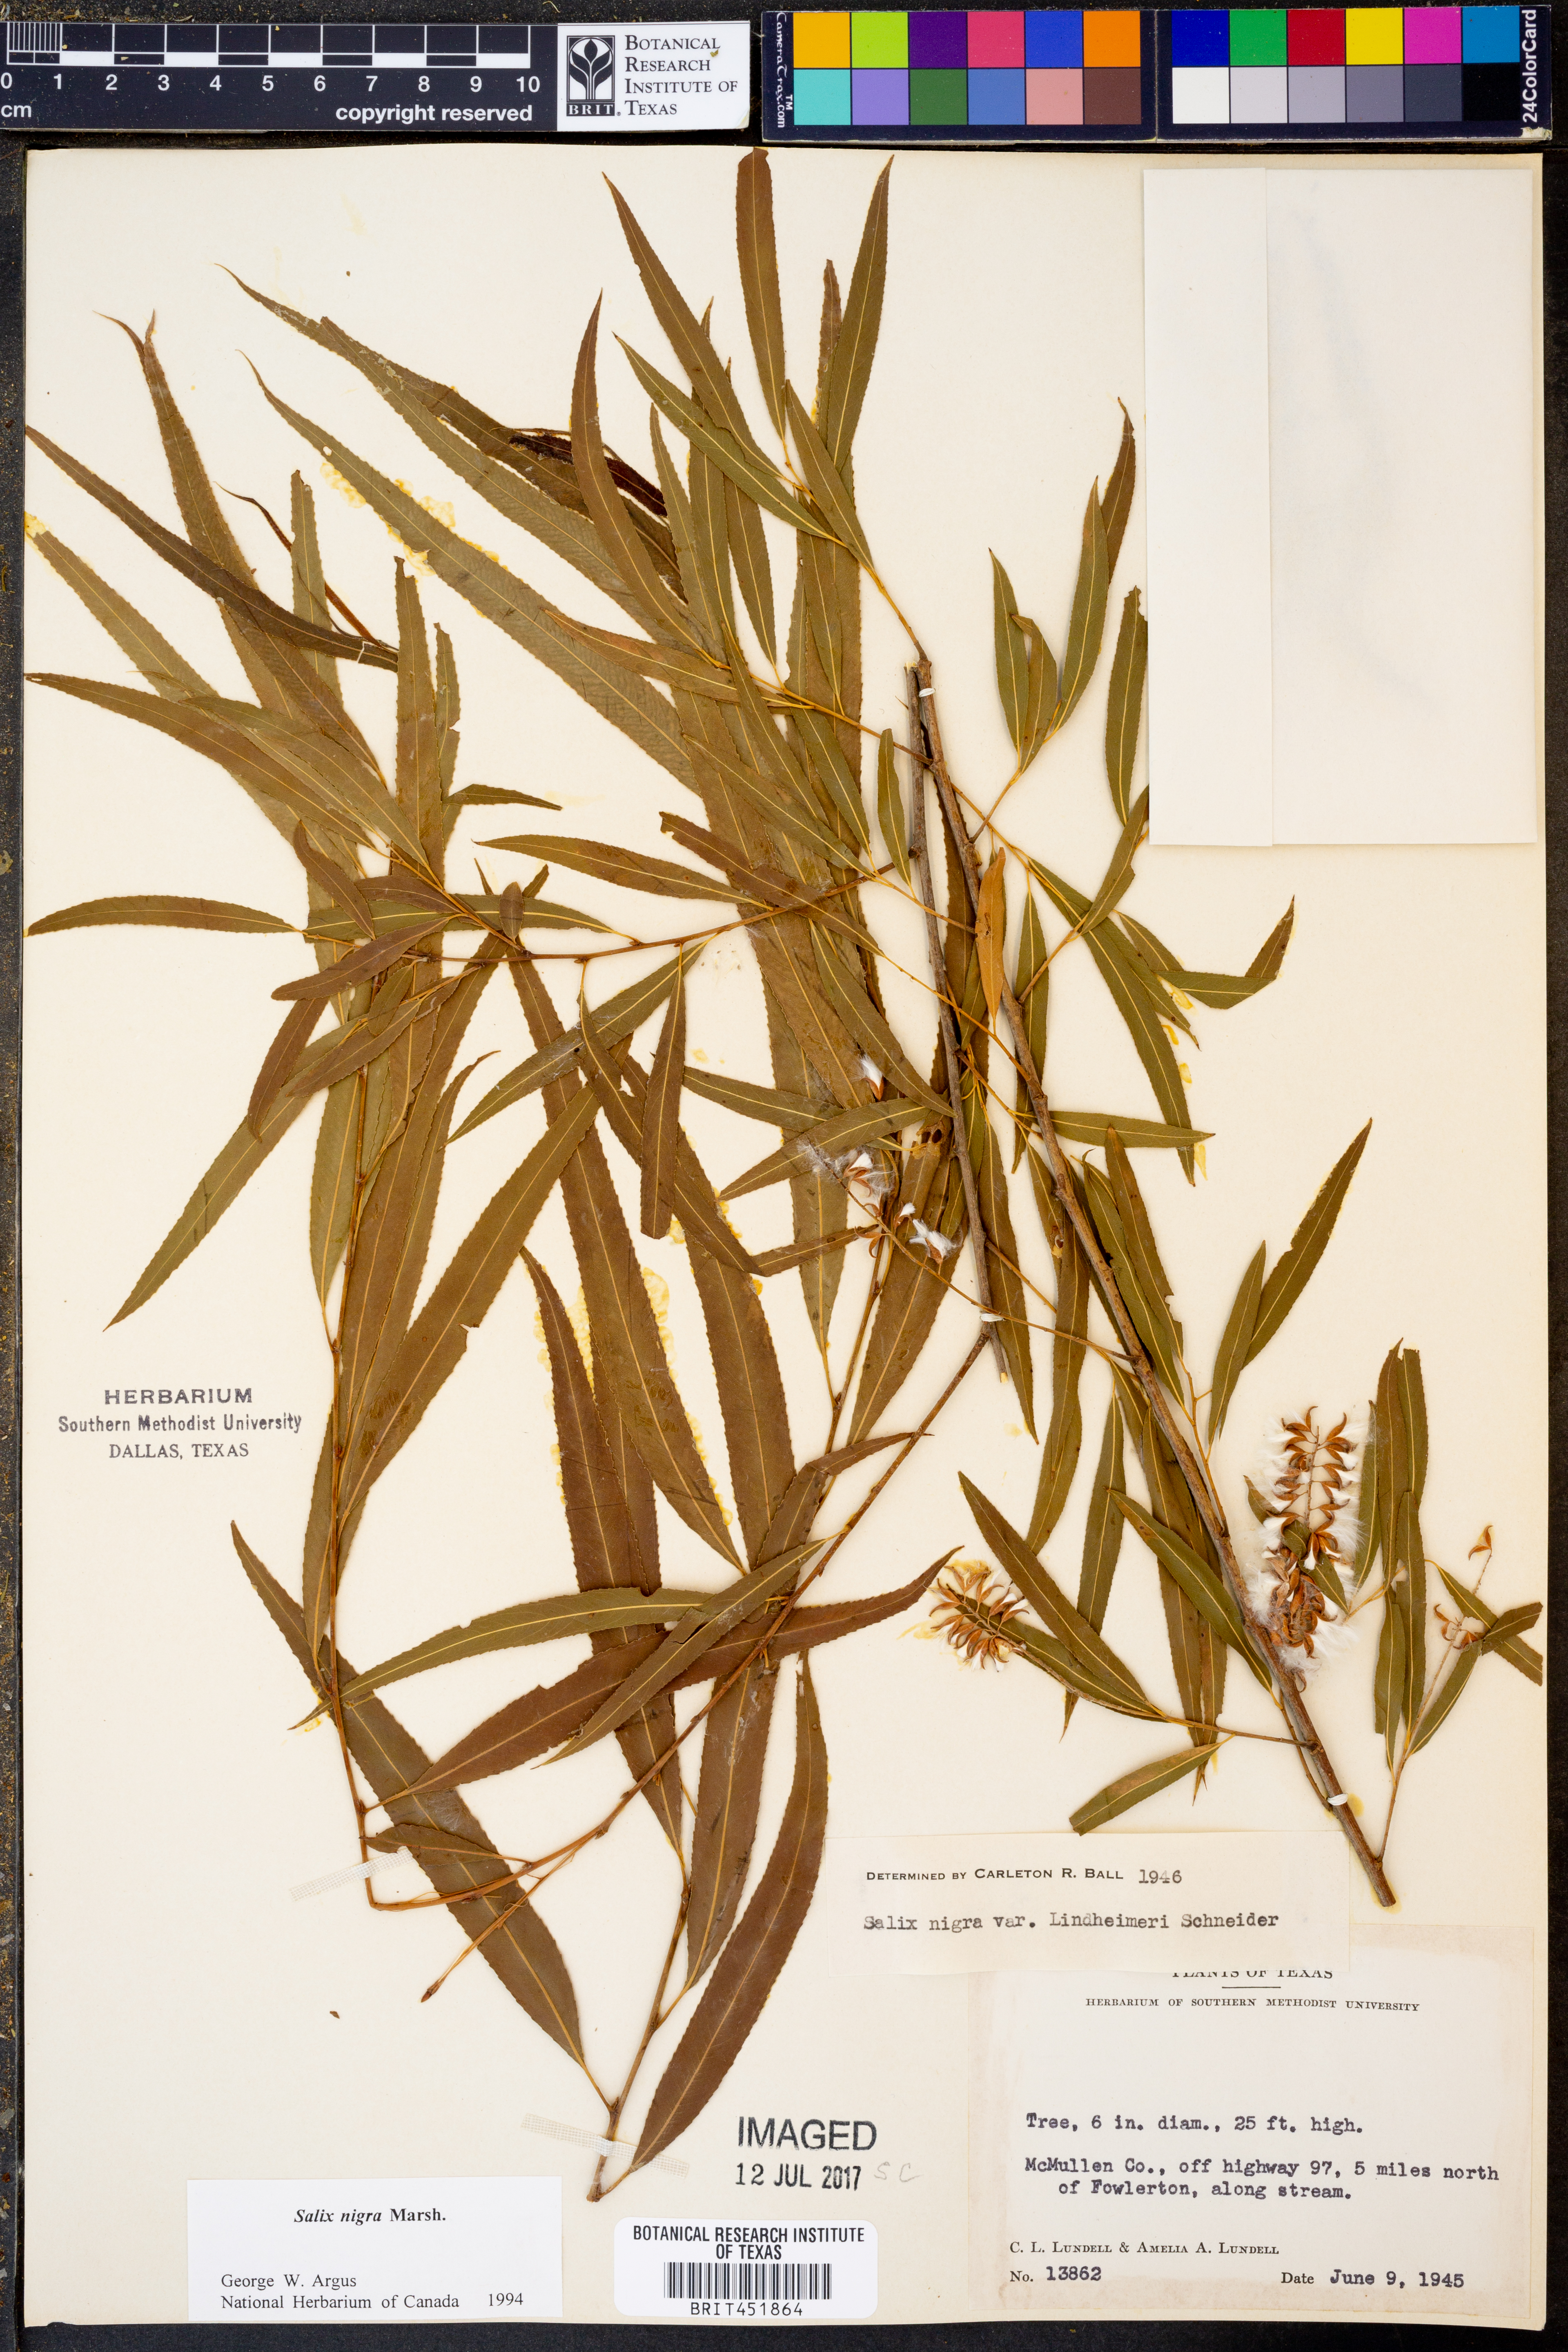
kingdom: Plantae
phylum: Tracheophyta
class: Magnoliopsida
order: Malpighiales
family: Salicaceae
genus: Salix
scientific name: Salix nigra
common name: Black willow
